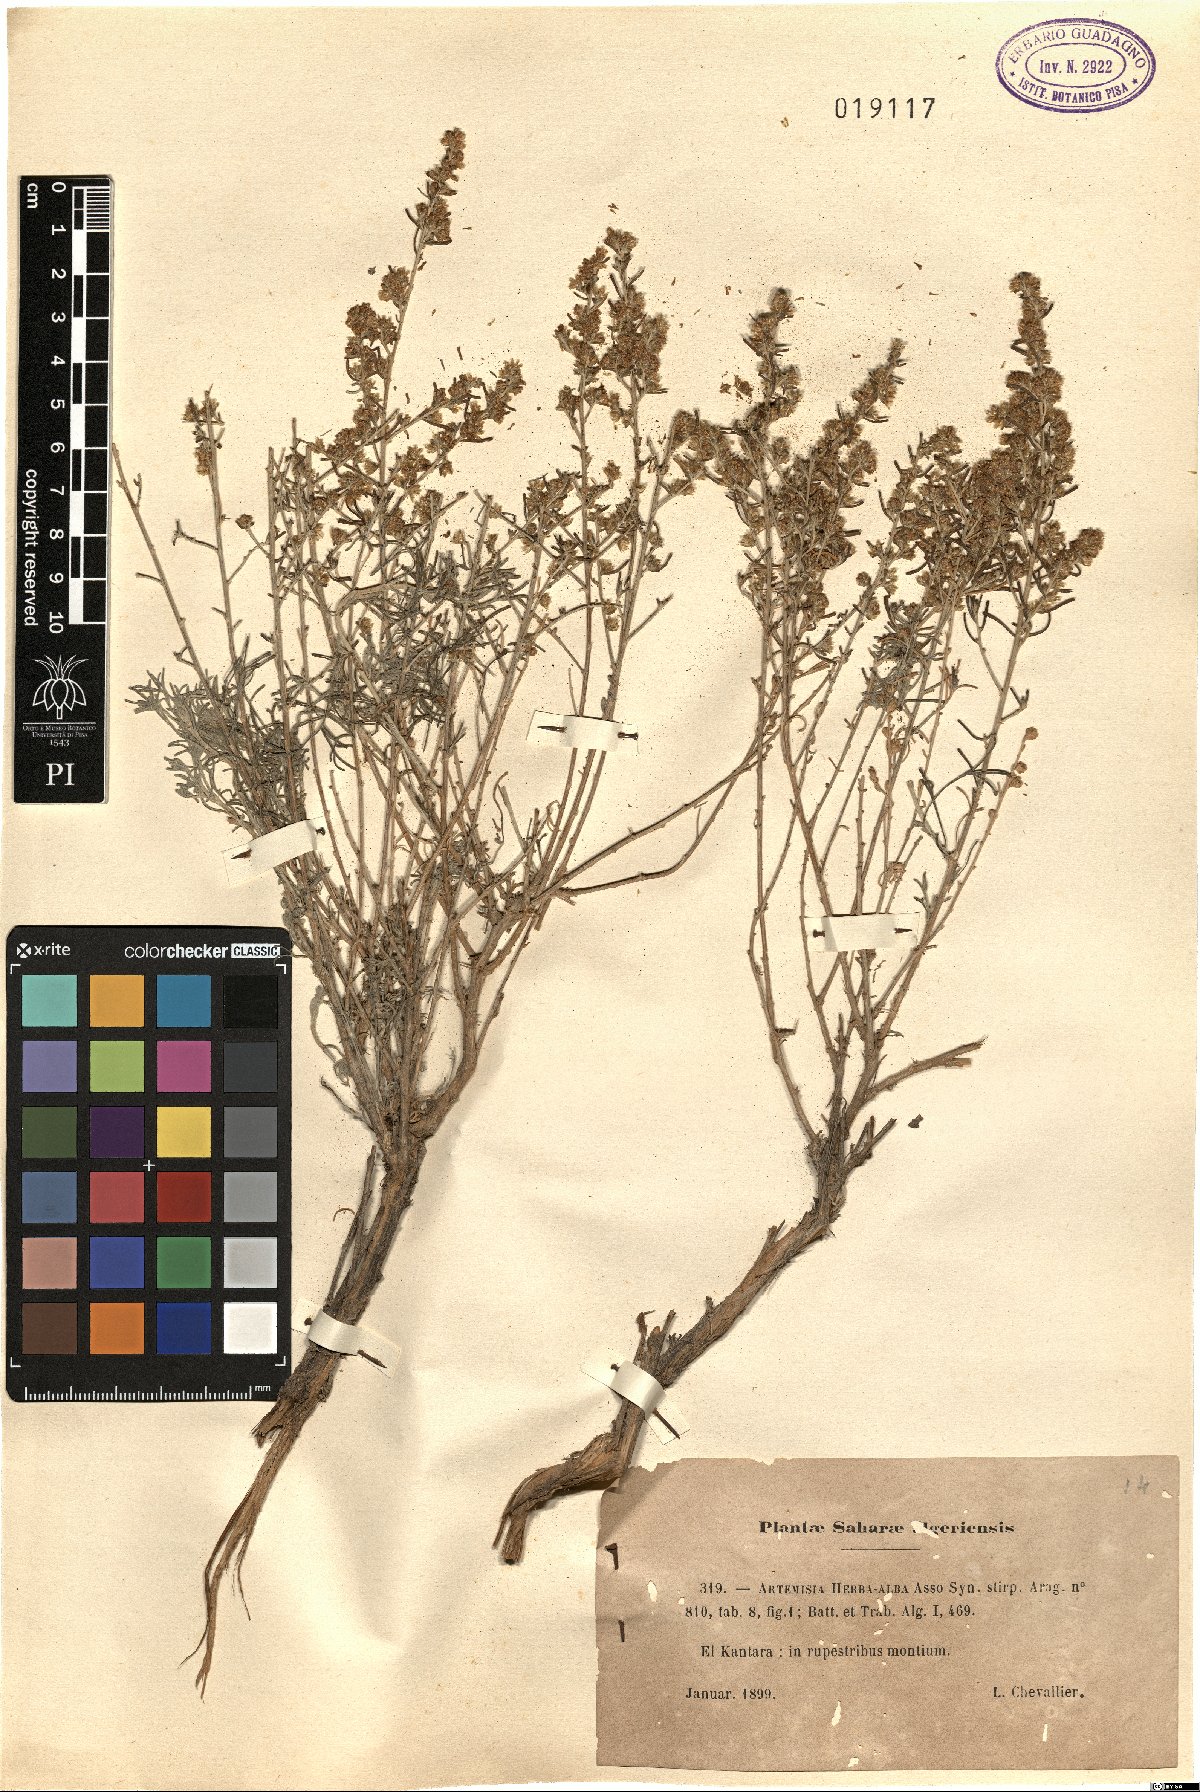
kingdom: Plantae
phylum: Tracheophyta
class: Magnoliopsida
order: Asterales
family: Asteraceae
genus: Artemisia
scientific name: Artemisia herba-alba
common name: White wormwood
